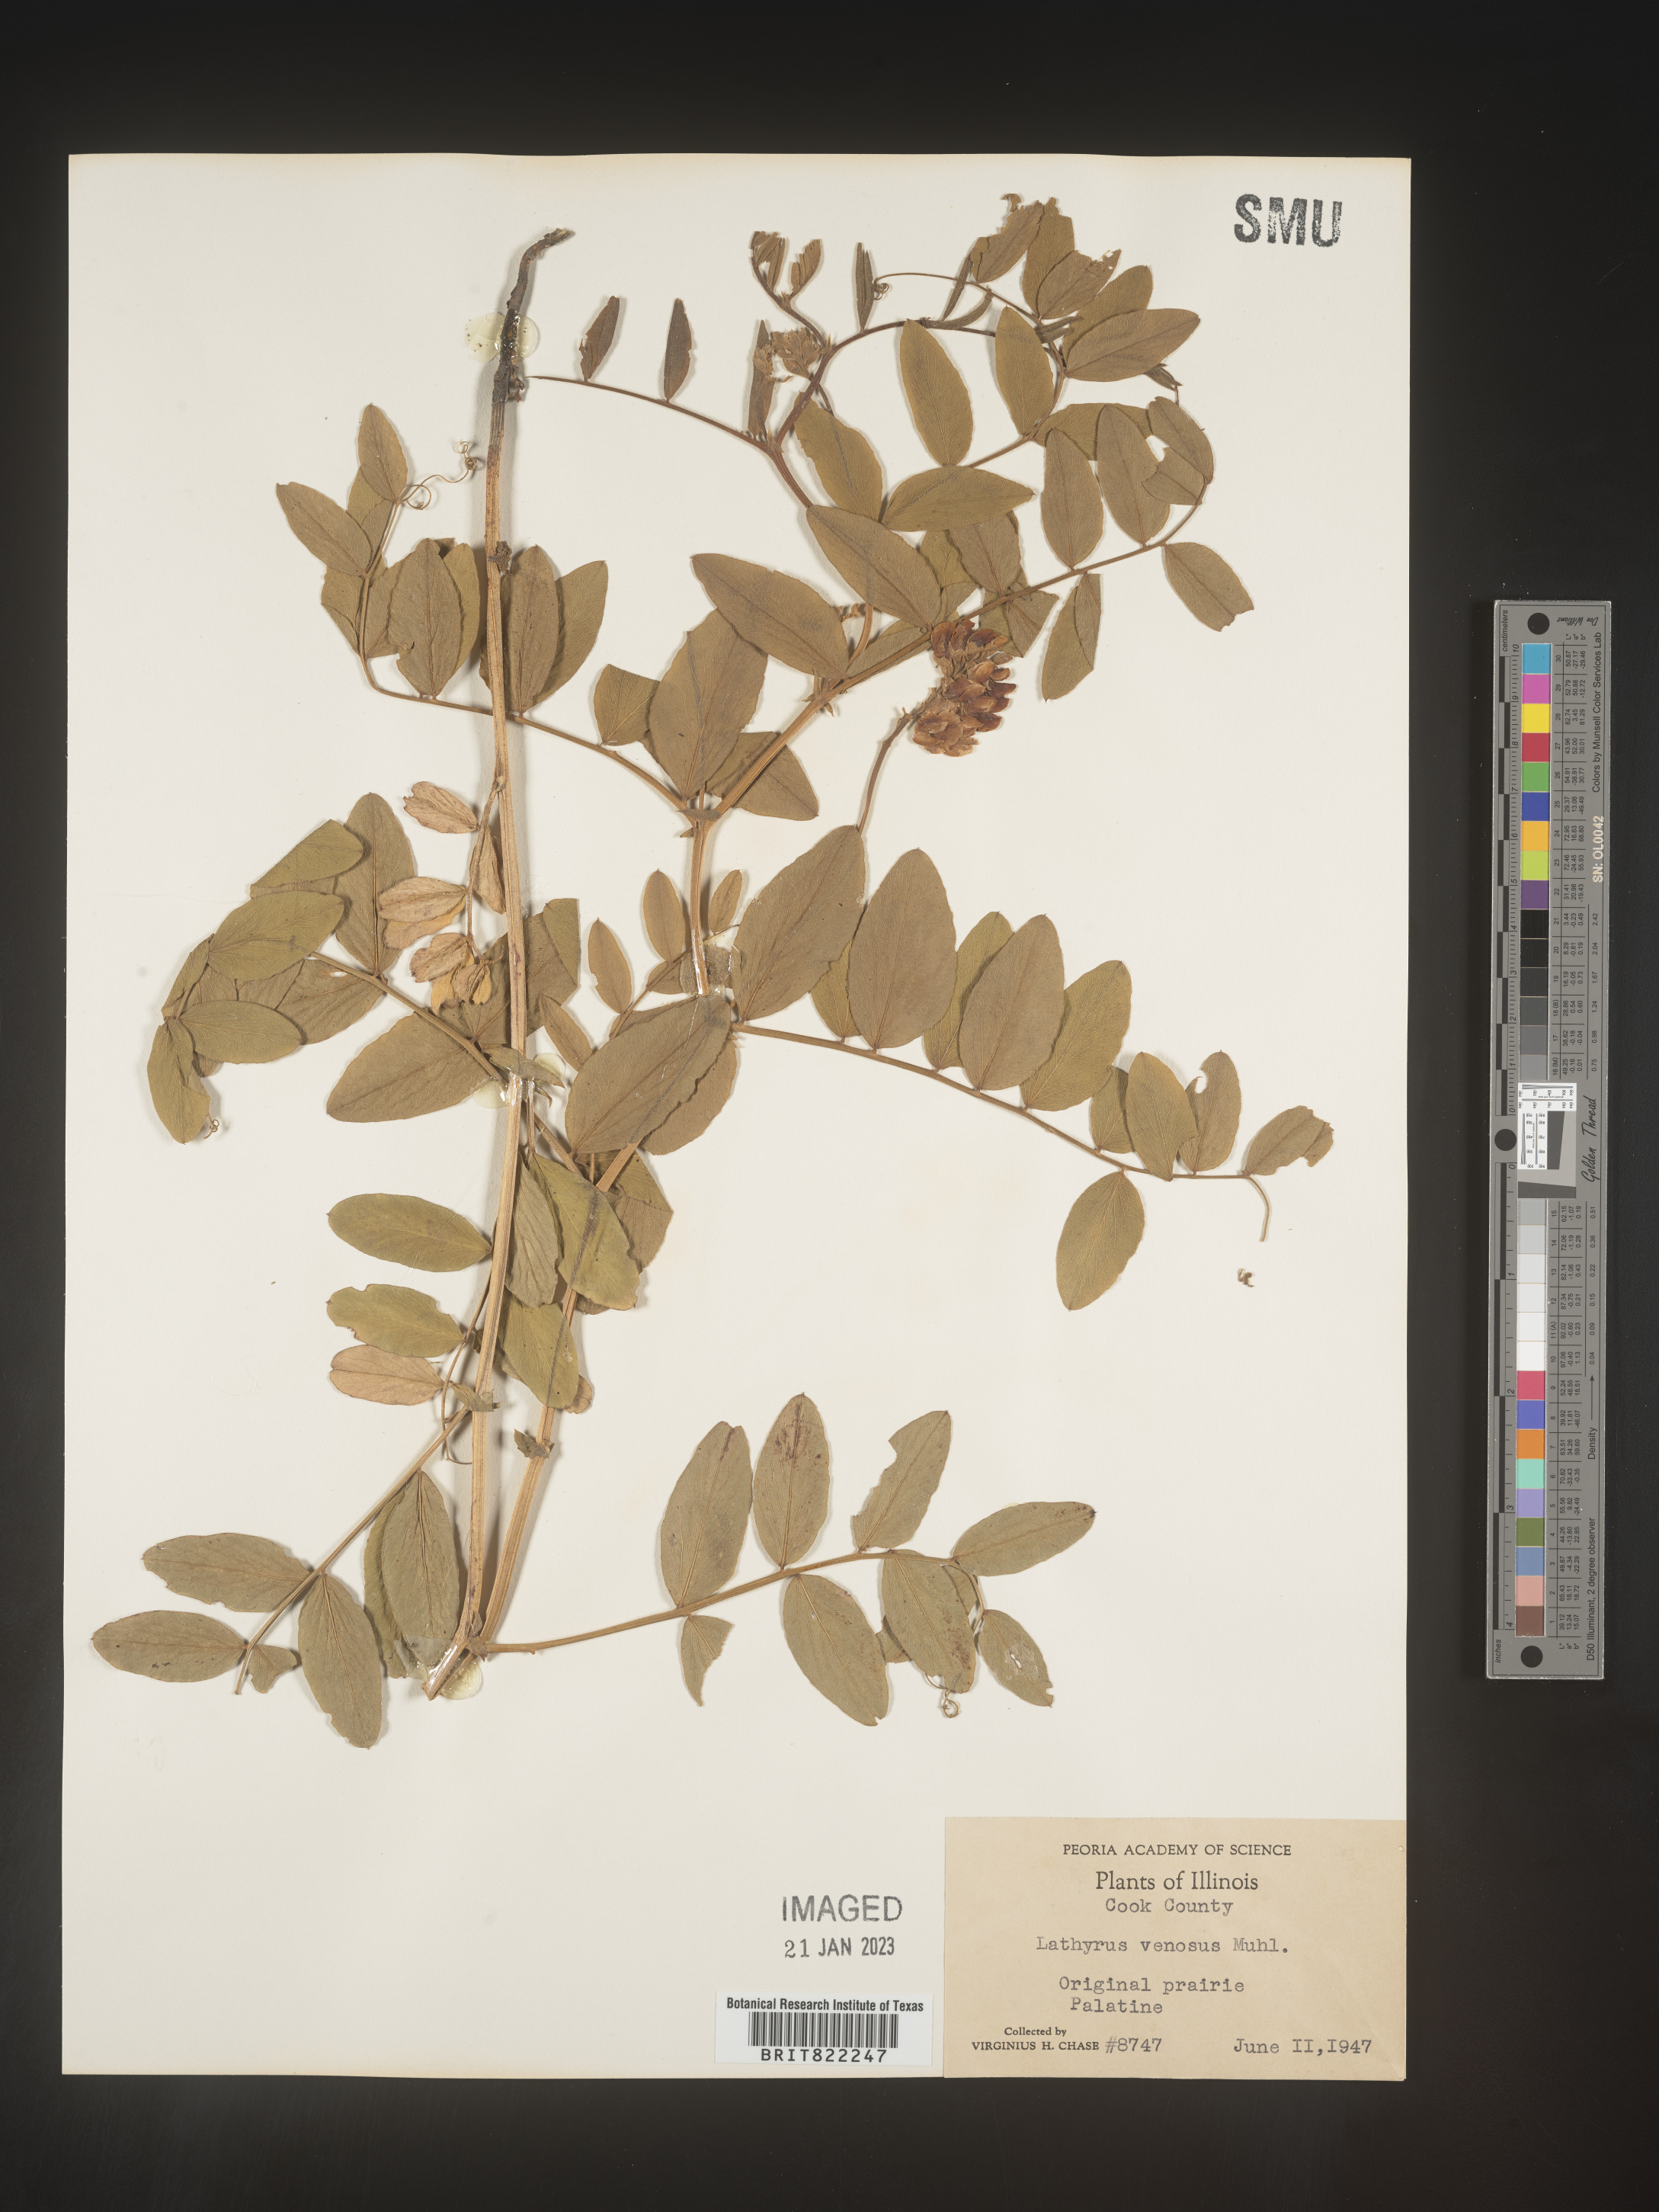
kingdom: Plantae
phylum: Tracheophyta
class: Magnoliopsida
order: Fabales
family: Fabaceae
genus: Lathyrus
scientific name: Lathyrus venosus
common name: Forest-pea
